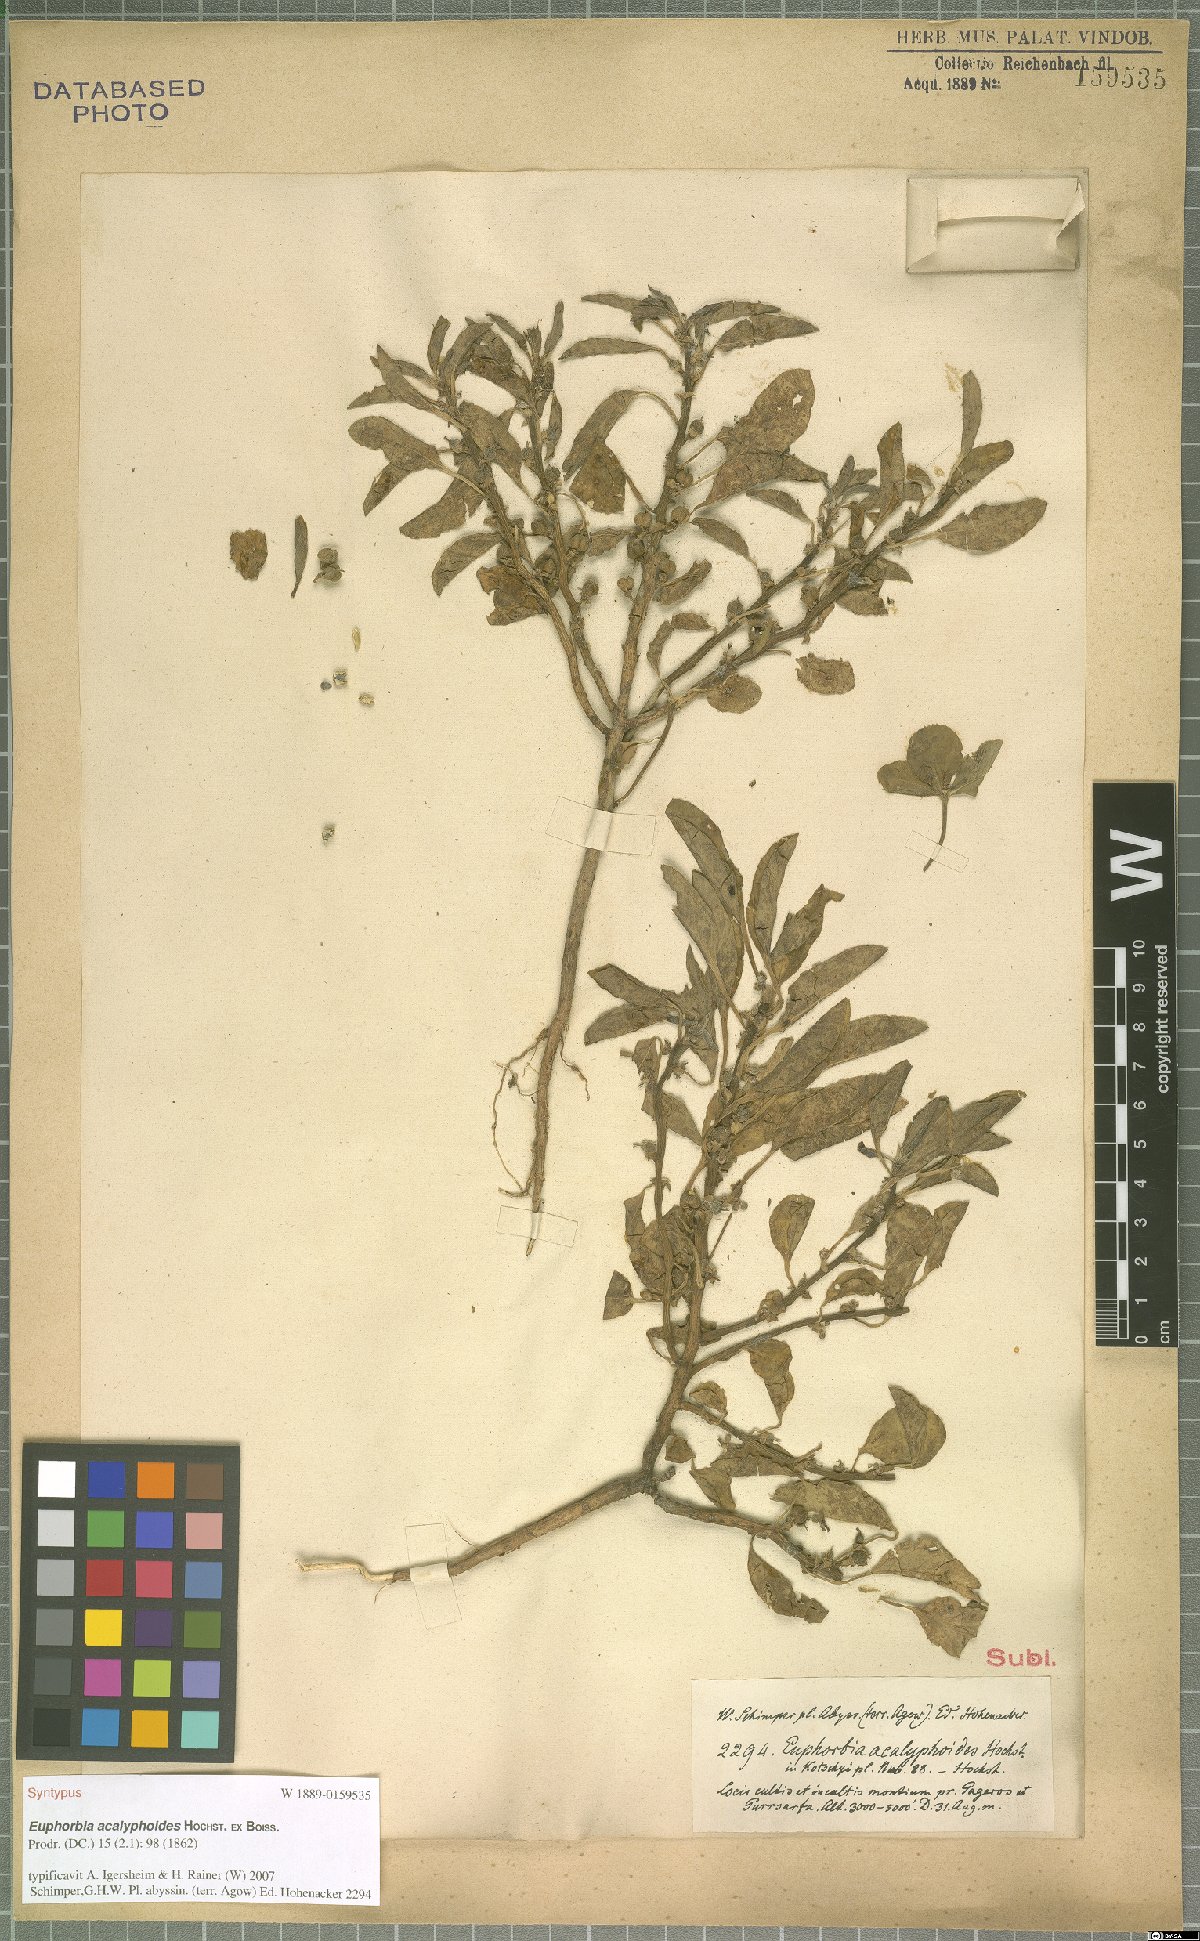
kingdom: Plantae
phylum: Tracheophyta
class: Magnoliopsida
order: Malpighiales
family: Euphorbiaceae
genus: Euphorbia
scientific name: Euphorbia acalyphoides
